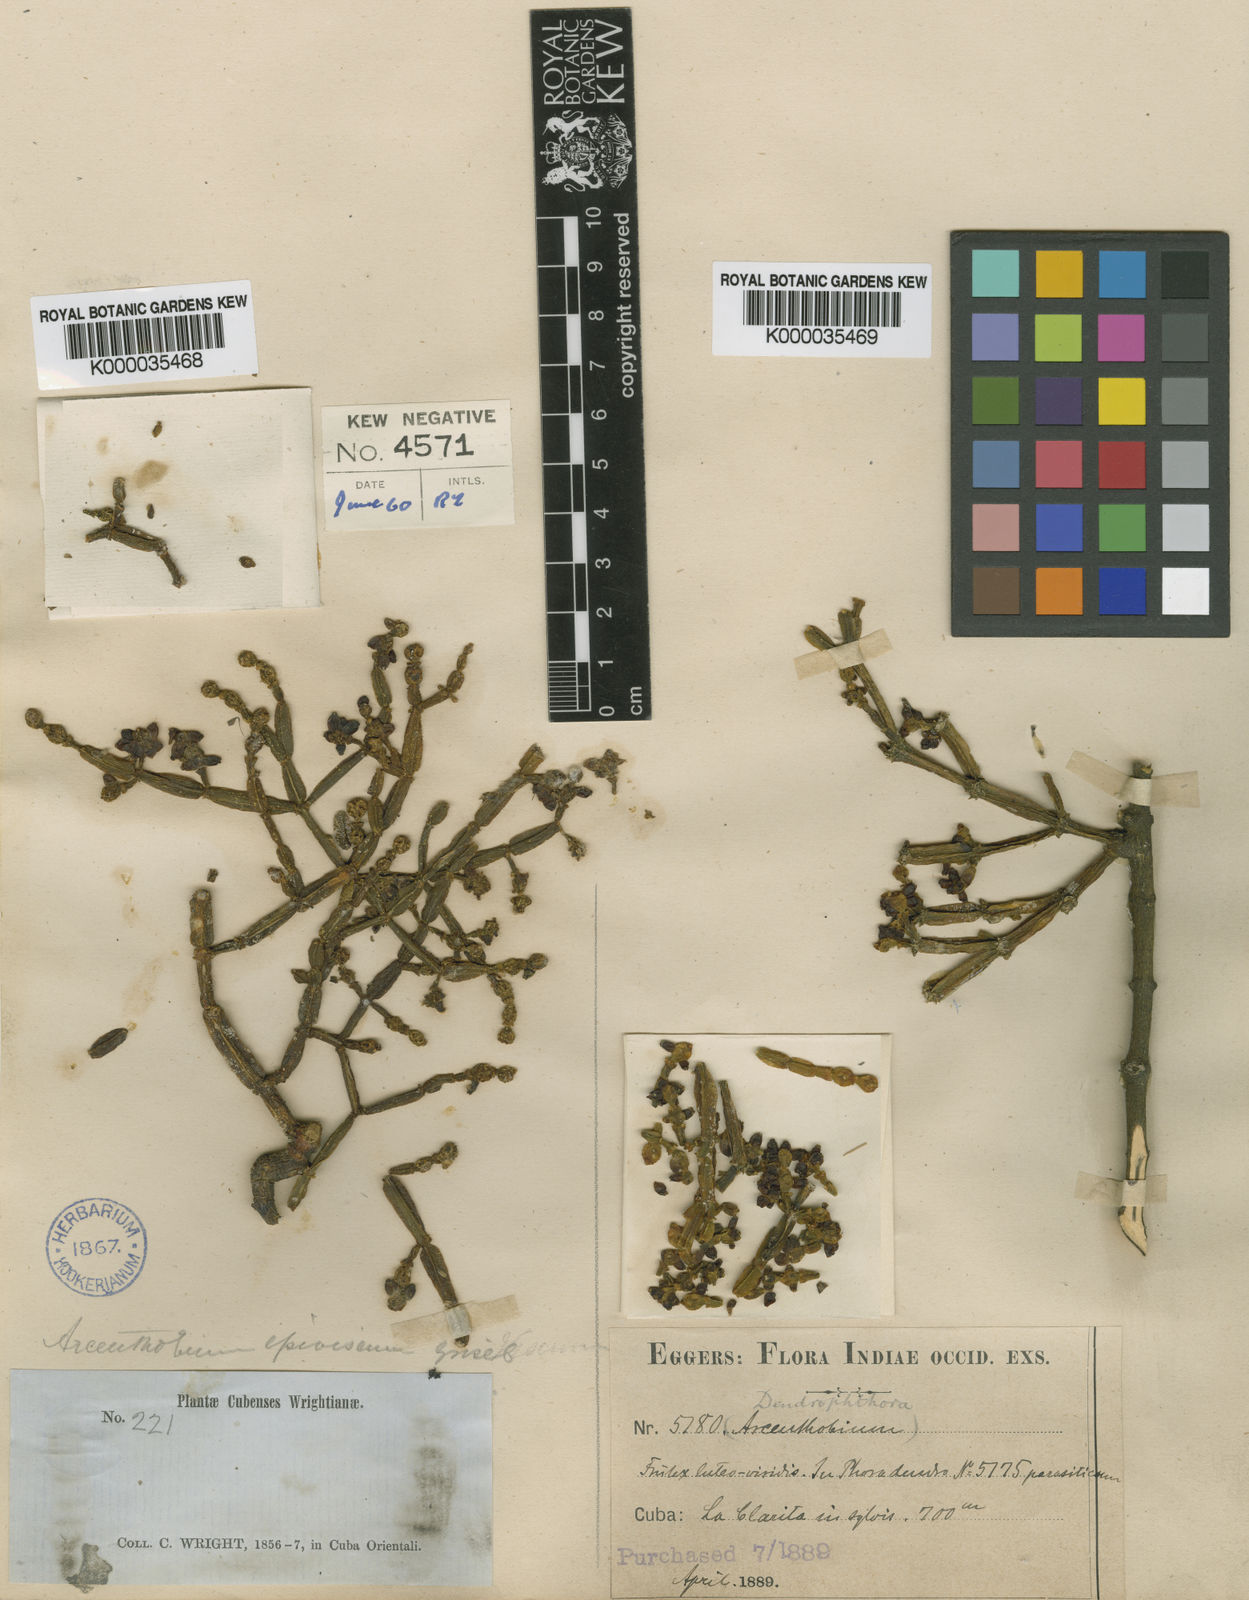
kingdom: Plantae
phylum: Tracheophyta
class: Magnoliopsida
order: Santalales
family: Viscaceae
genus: Dendrophthora
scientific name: Dendrophthora epiviscum
